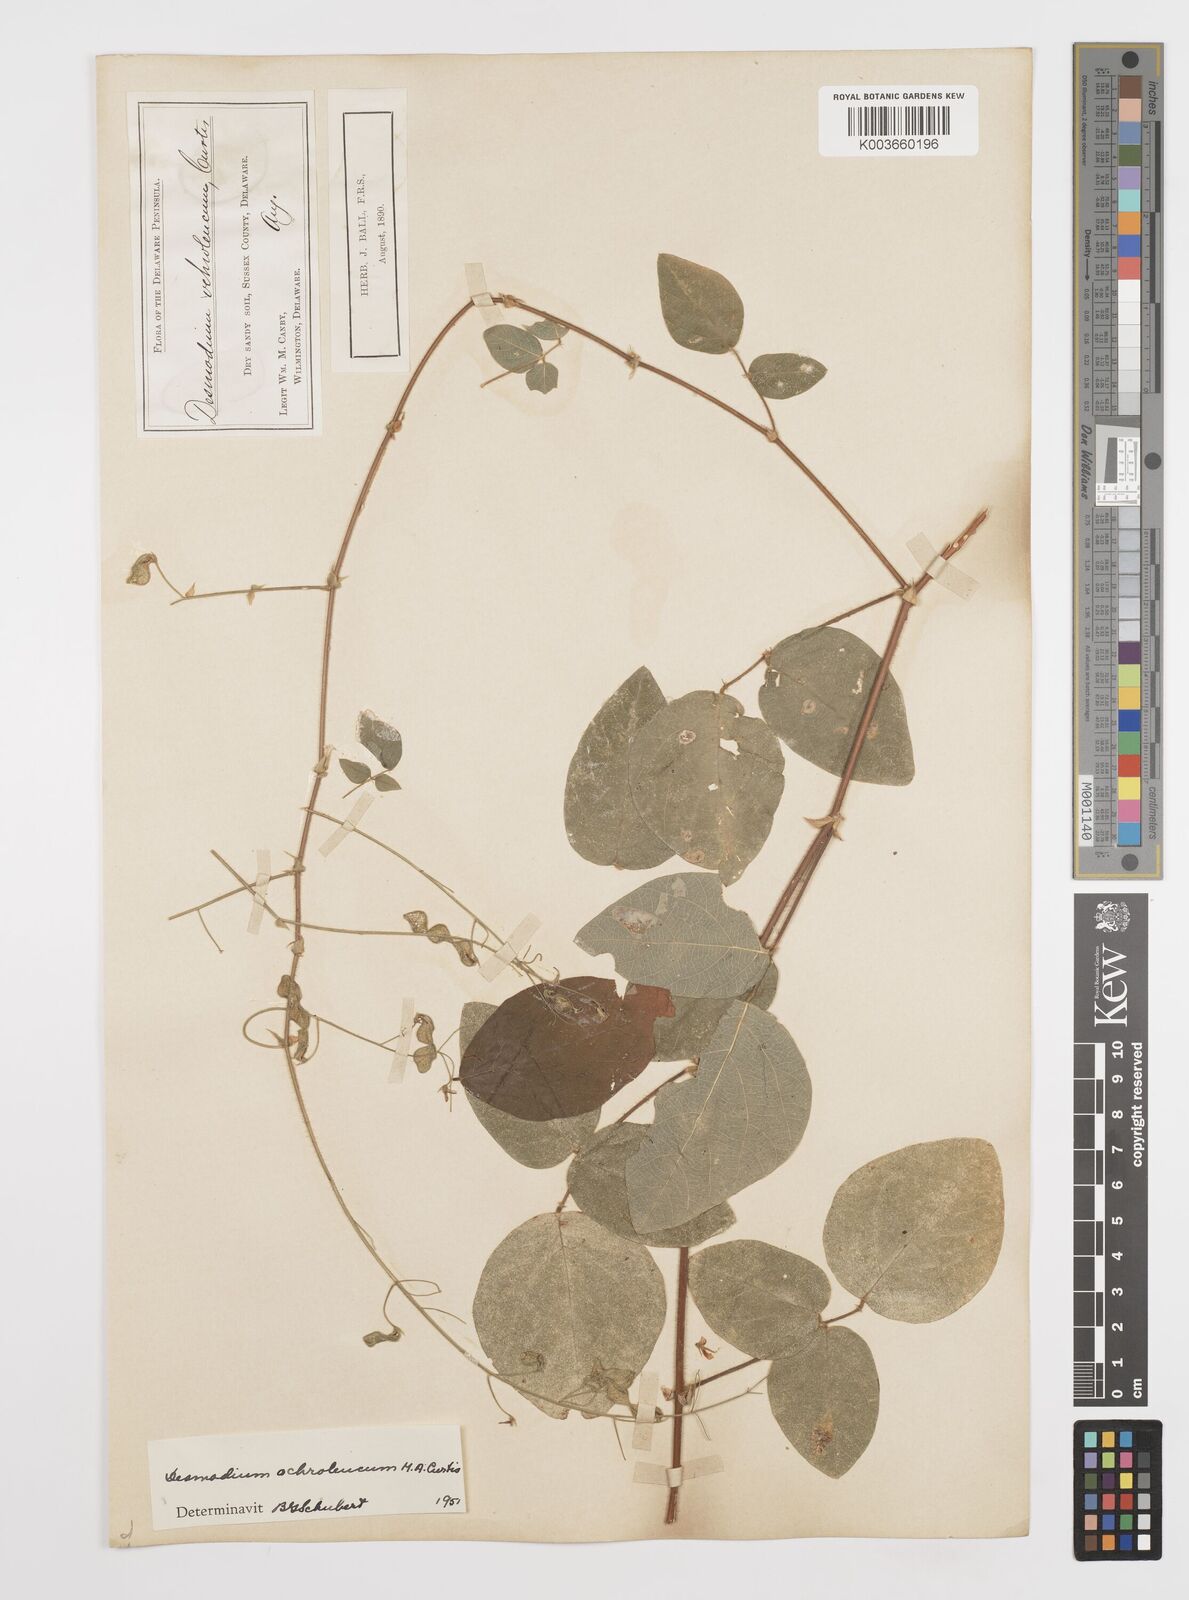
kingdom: Plantae
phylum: Tracheophyta
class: Magnoliopsida
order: Fabales
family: Fabaceae
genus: Desmodium
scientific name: Desmodium ochroleucum
